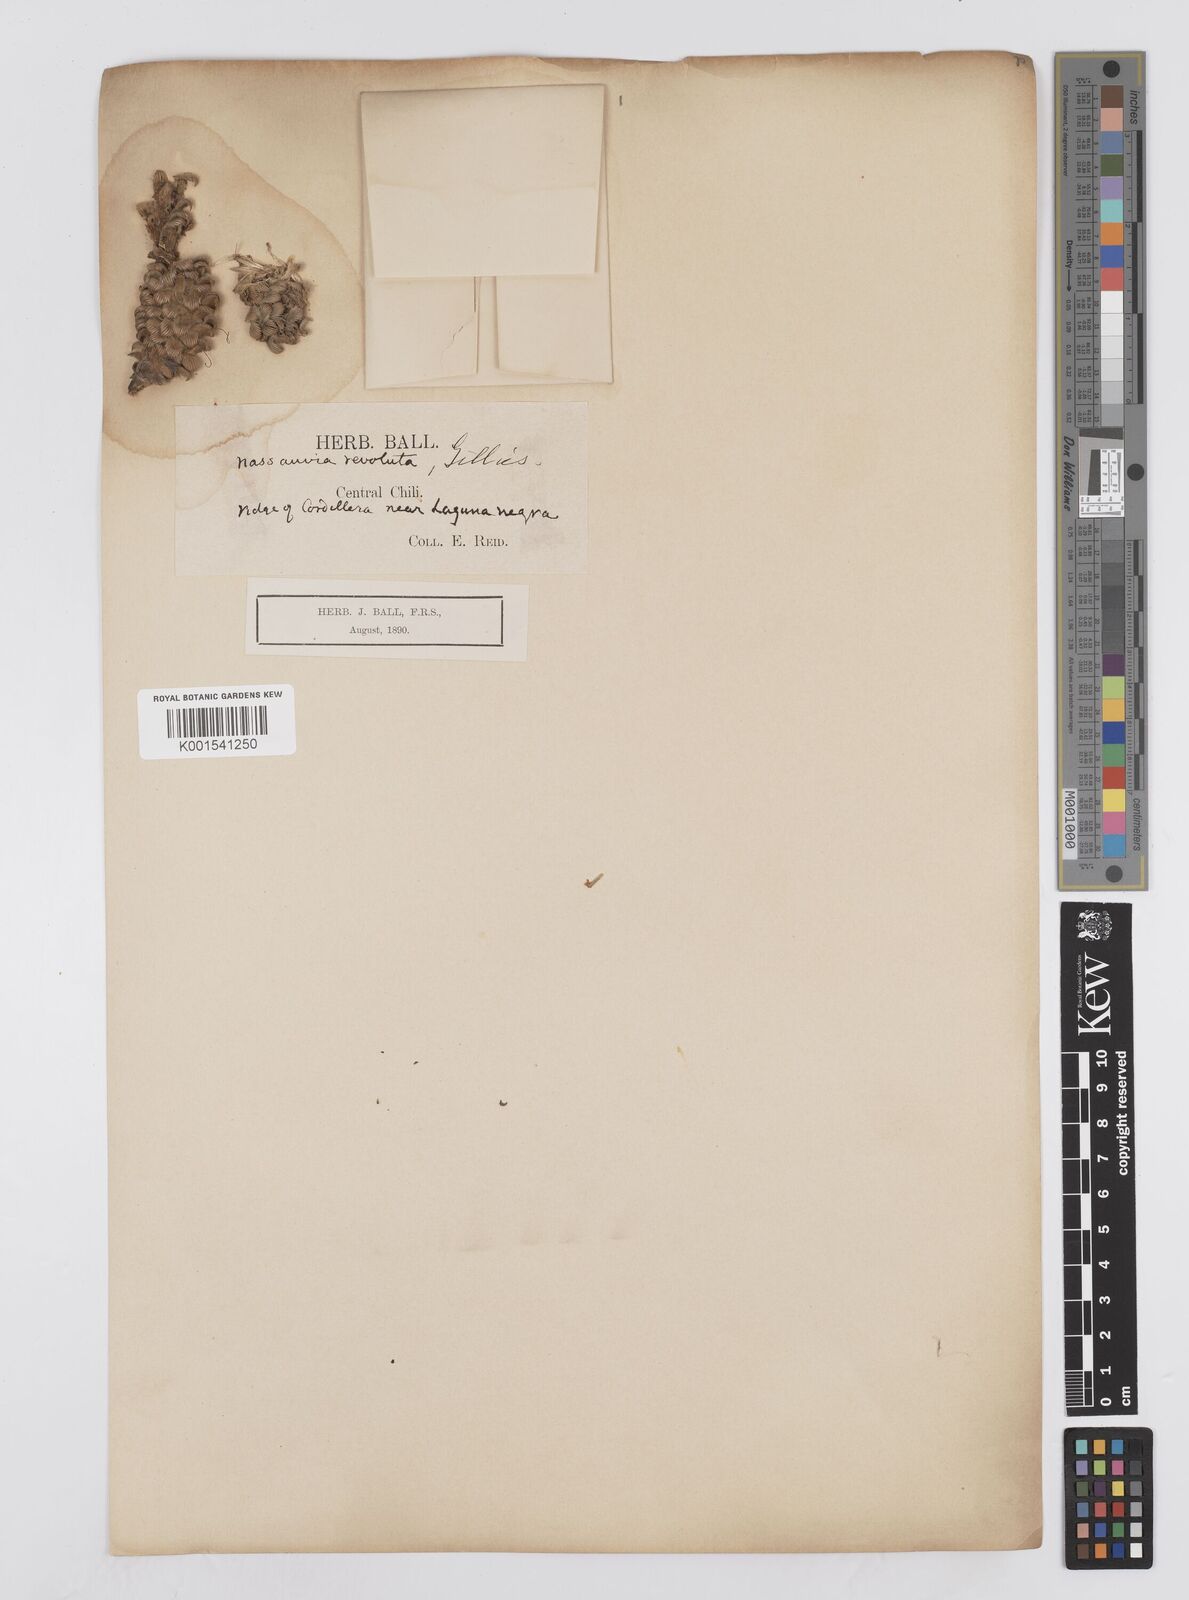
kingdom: Plantae
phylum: Tracheophyta
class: Magnoliopsida
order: Asterales
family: Asteraceae
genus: Nassauvia
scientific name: Nassauvia revoluta
